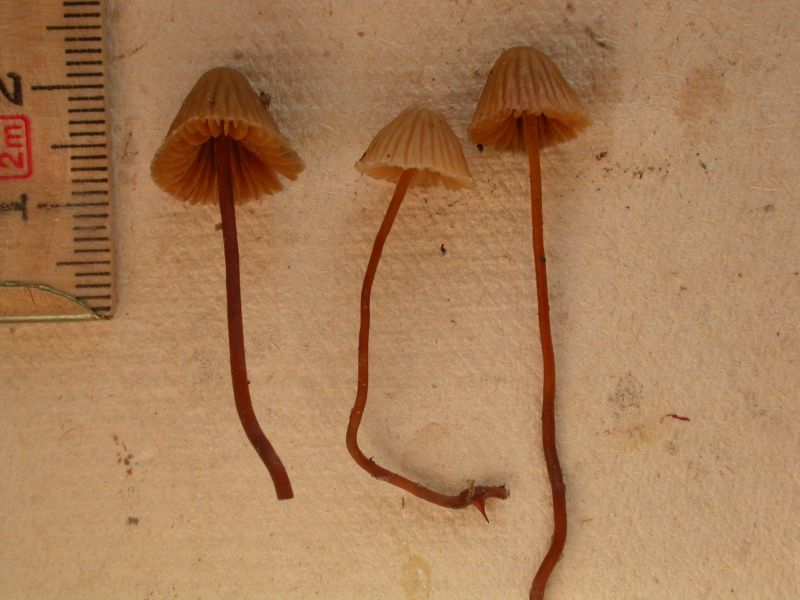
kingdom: Fungi
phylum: Basidiomycota
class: Agaricomycetes
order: Agaricales
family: Hymenogastraceae
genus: Galerina
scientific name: Galerina vittiformis
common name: Hairy leg bell
